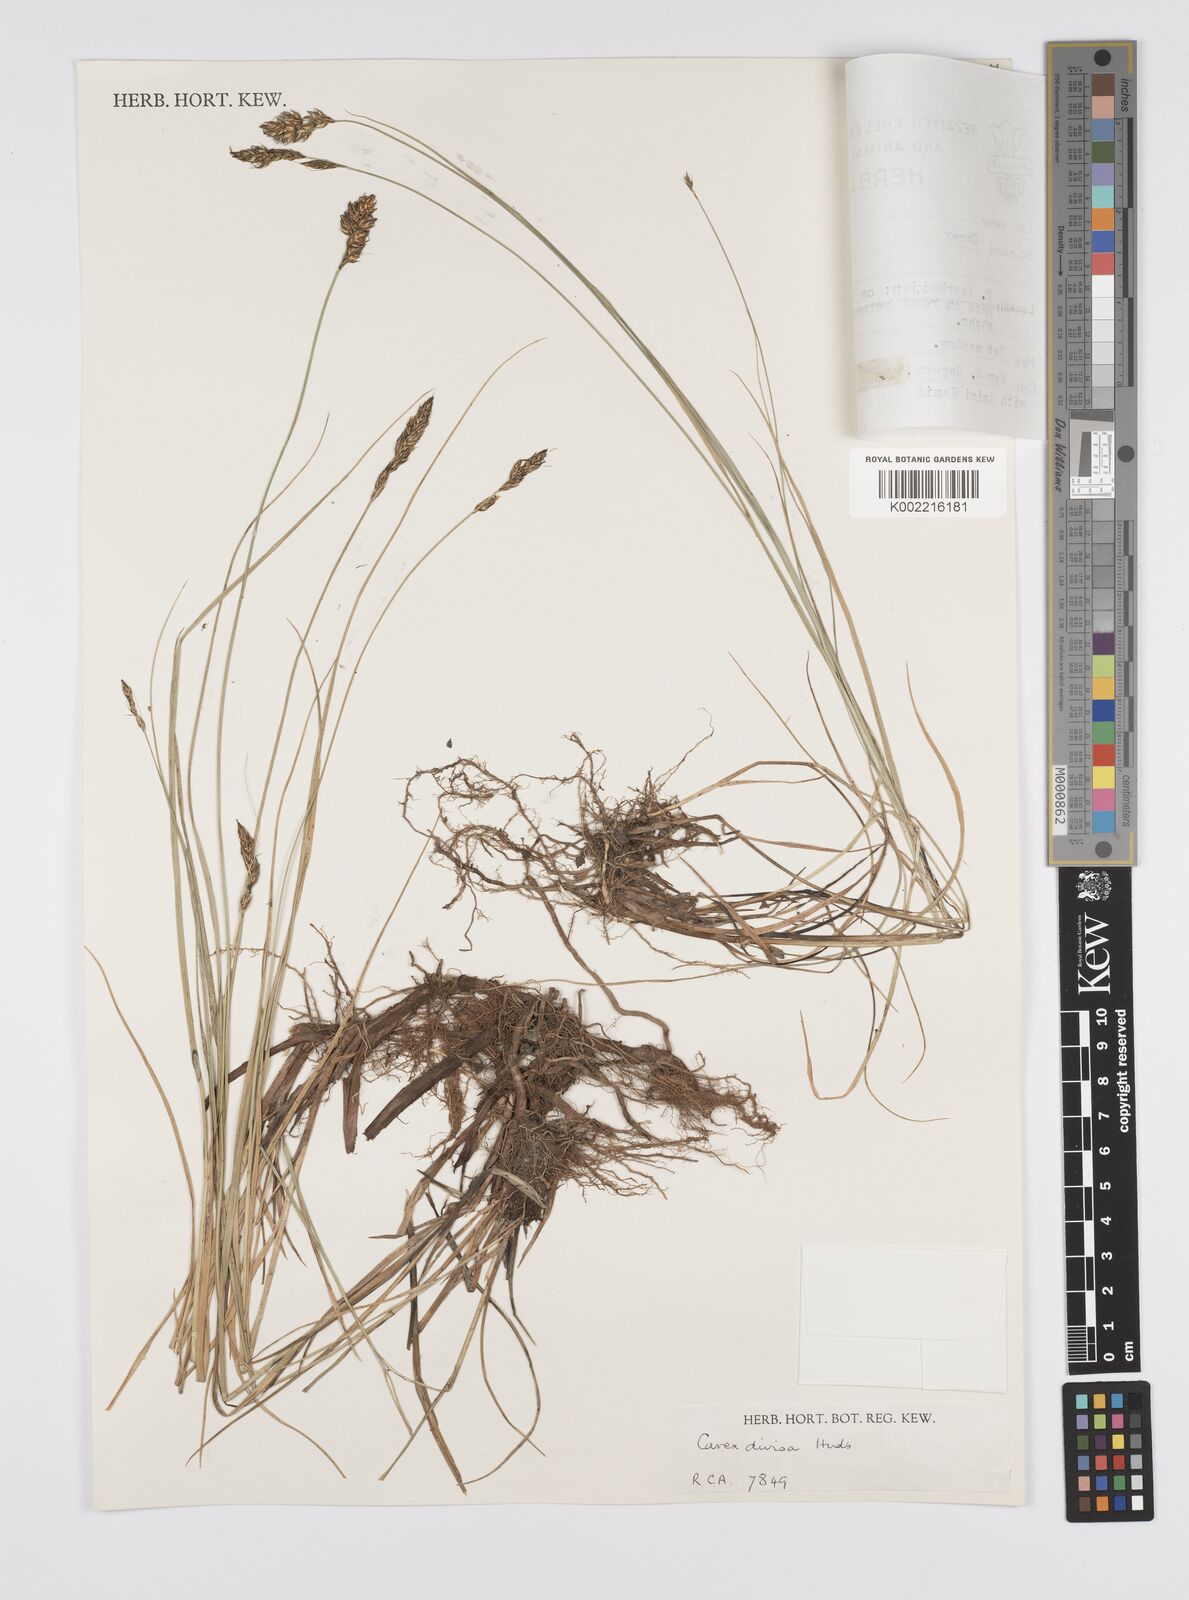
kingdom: Plantae
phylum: Tracheophyta
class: Liliopsida
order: Poales
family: Cyperaceae
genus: Carex
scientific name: Carex divisa
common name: Divided sedge
